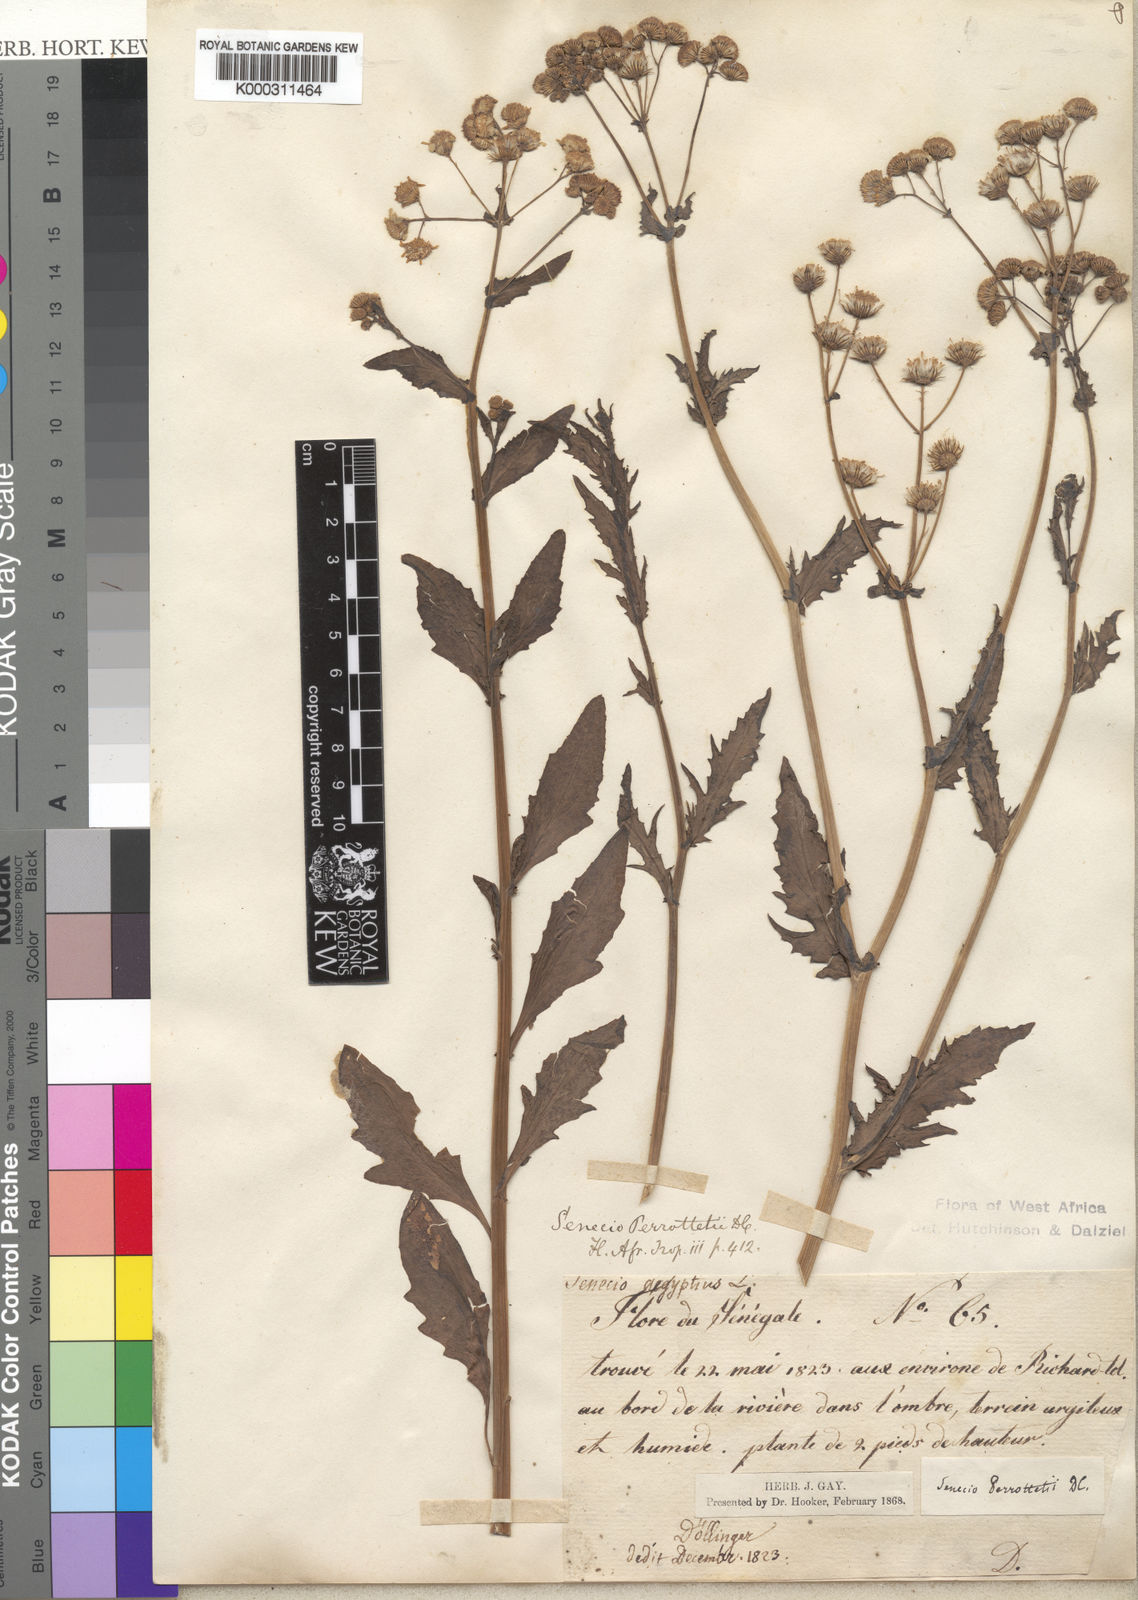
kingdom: Plantae
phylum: Tracheophyta
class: Magnoliopsida
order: Asterales
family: Asteraceae
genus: Senecio
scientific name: Senecio perrottetii
